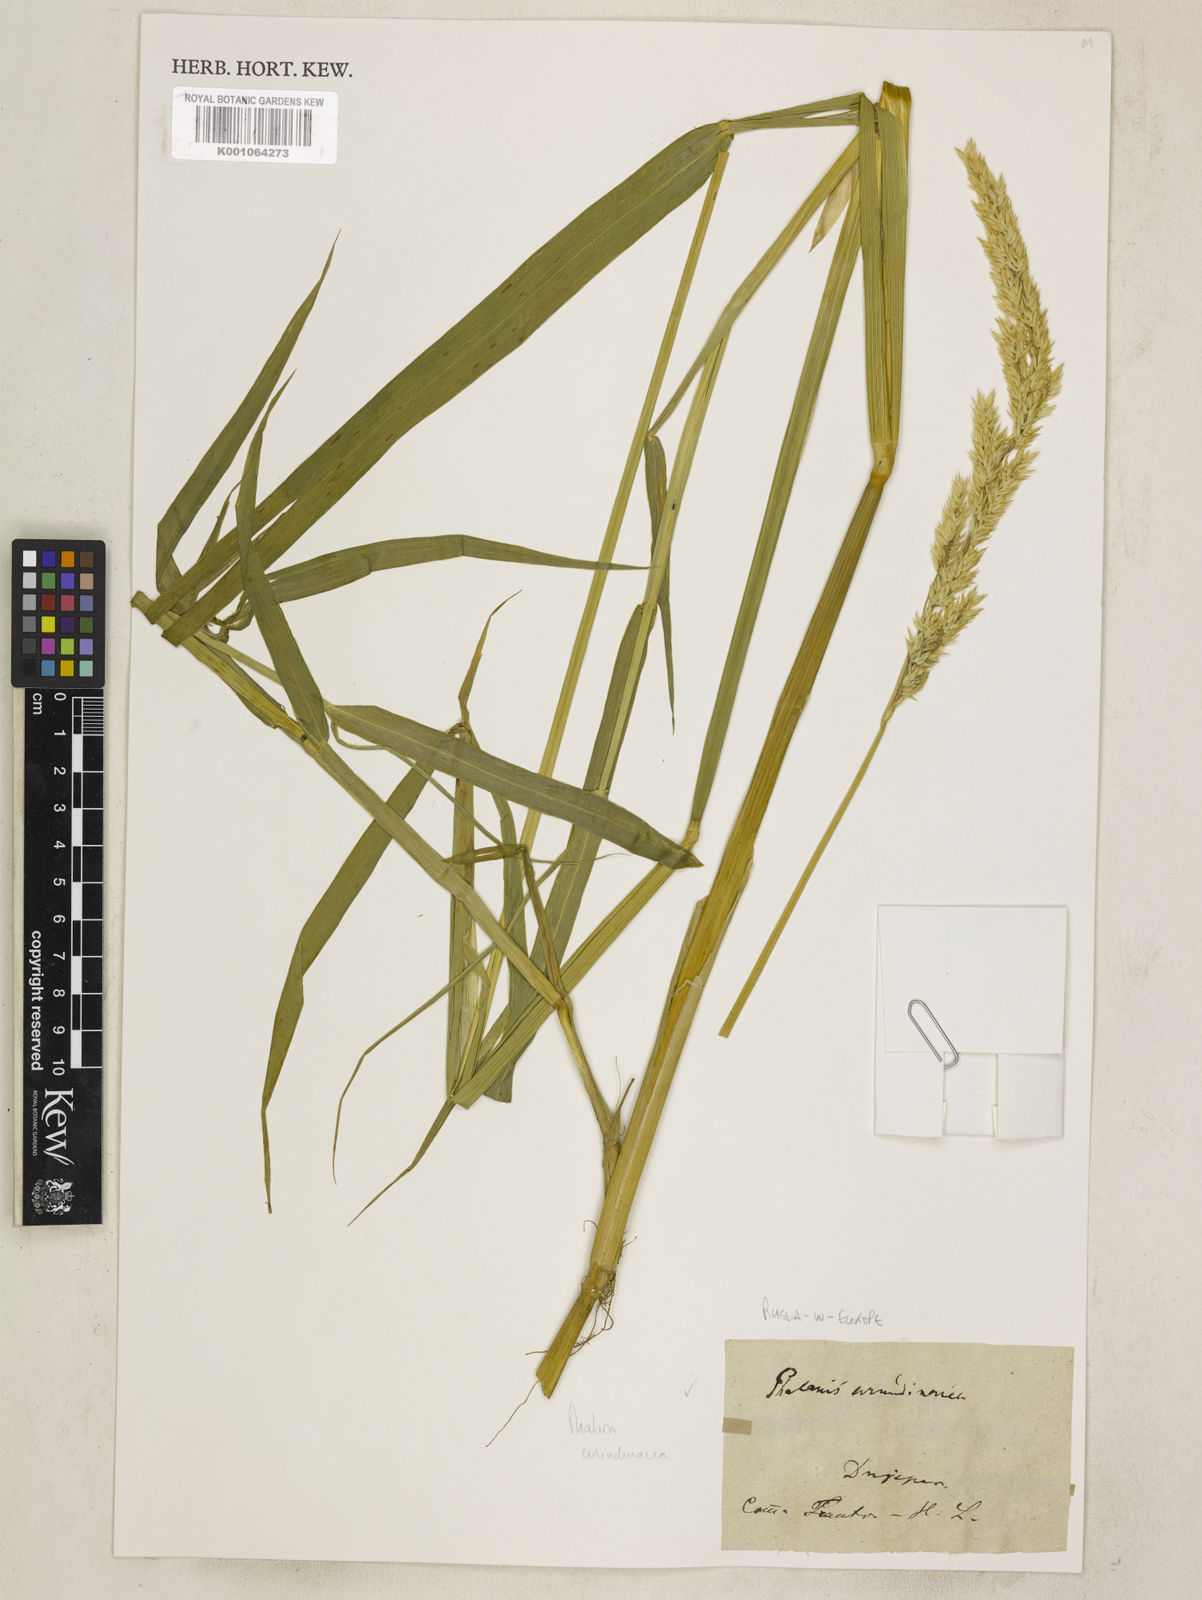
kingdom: Plantae
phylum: Tracheophyta
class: Liliopsida
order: Poales
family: Poaceae
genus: Phalaris
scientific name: Phalaris arundinacea
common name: Reed canary-grass
